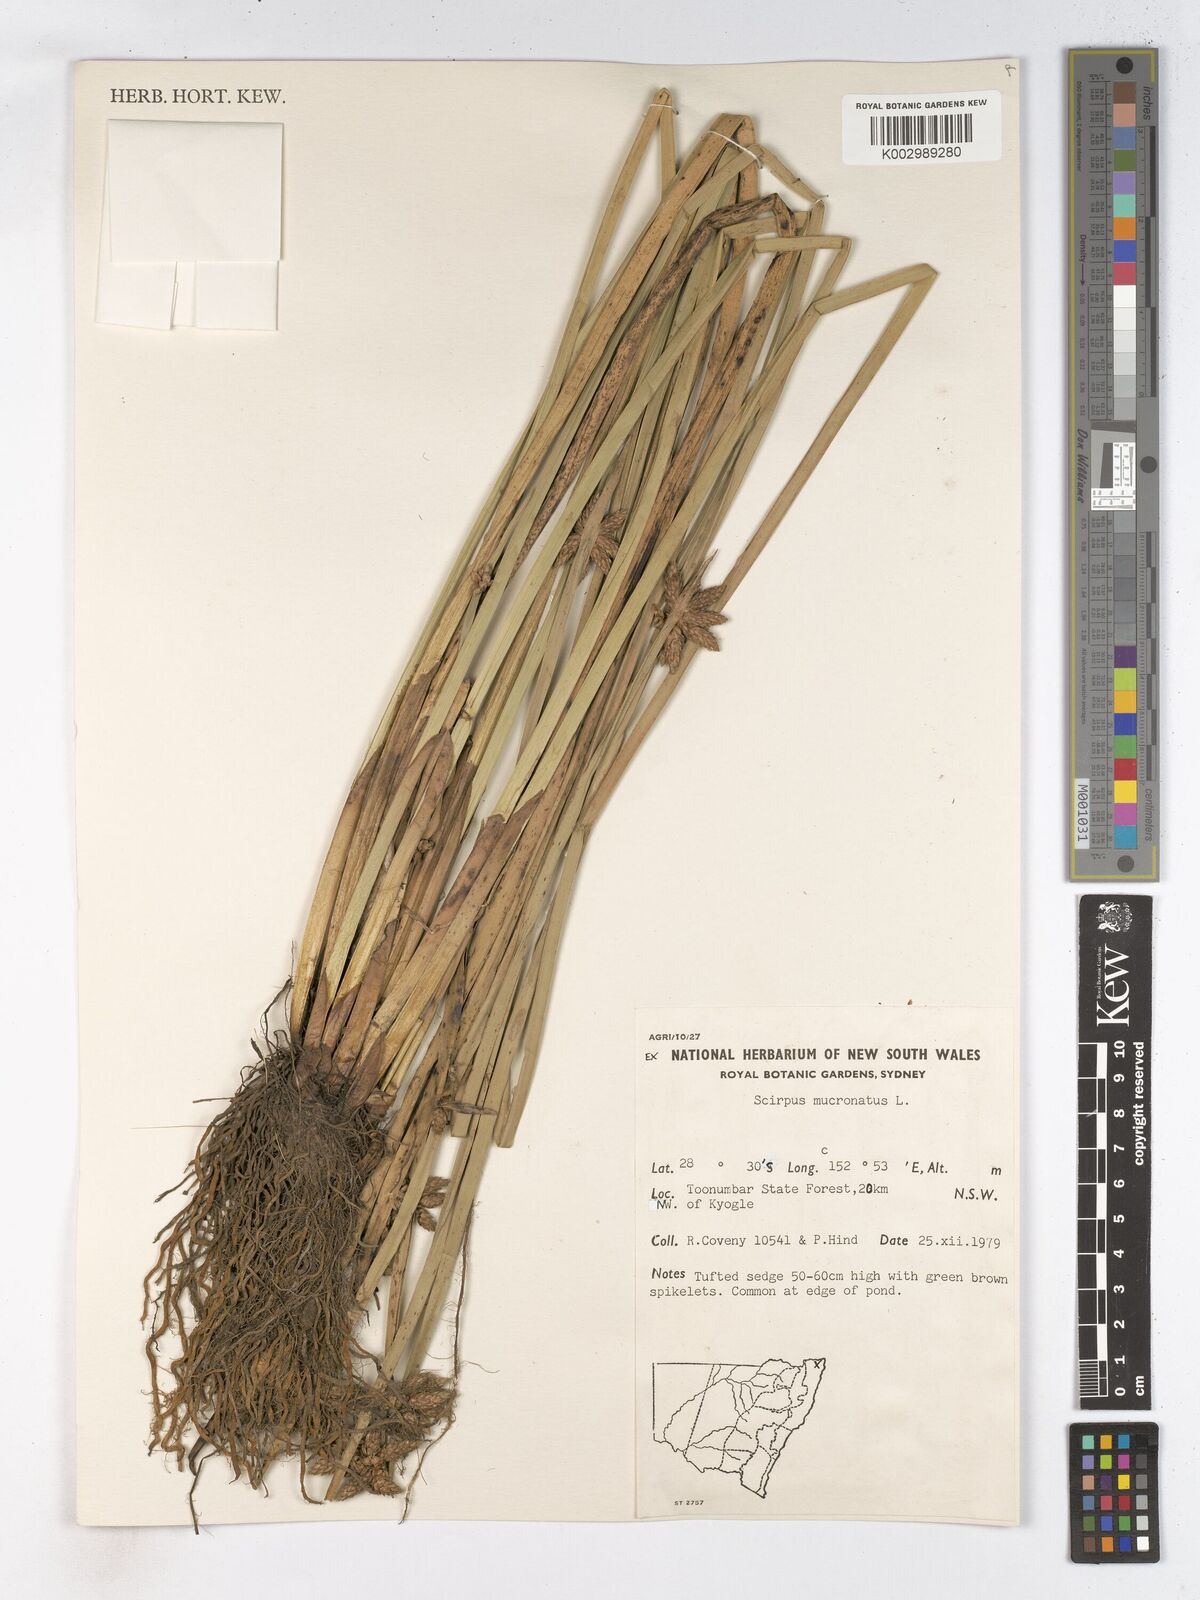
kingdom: Plantae
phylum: Tracheophyta
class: Liliopsida
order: Poales
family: Cyperaceae
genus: Schoenoplectiella
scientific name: Schoenoplectiella mucronata
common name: Bog bulrush
